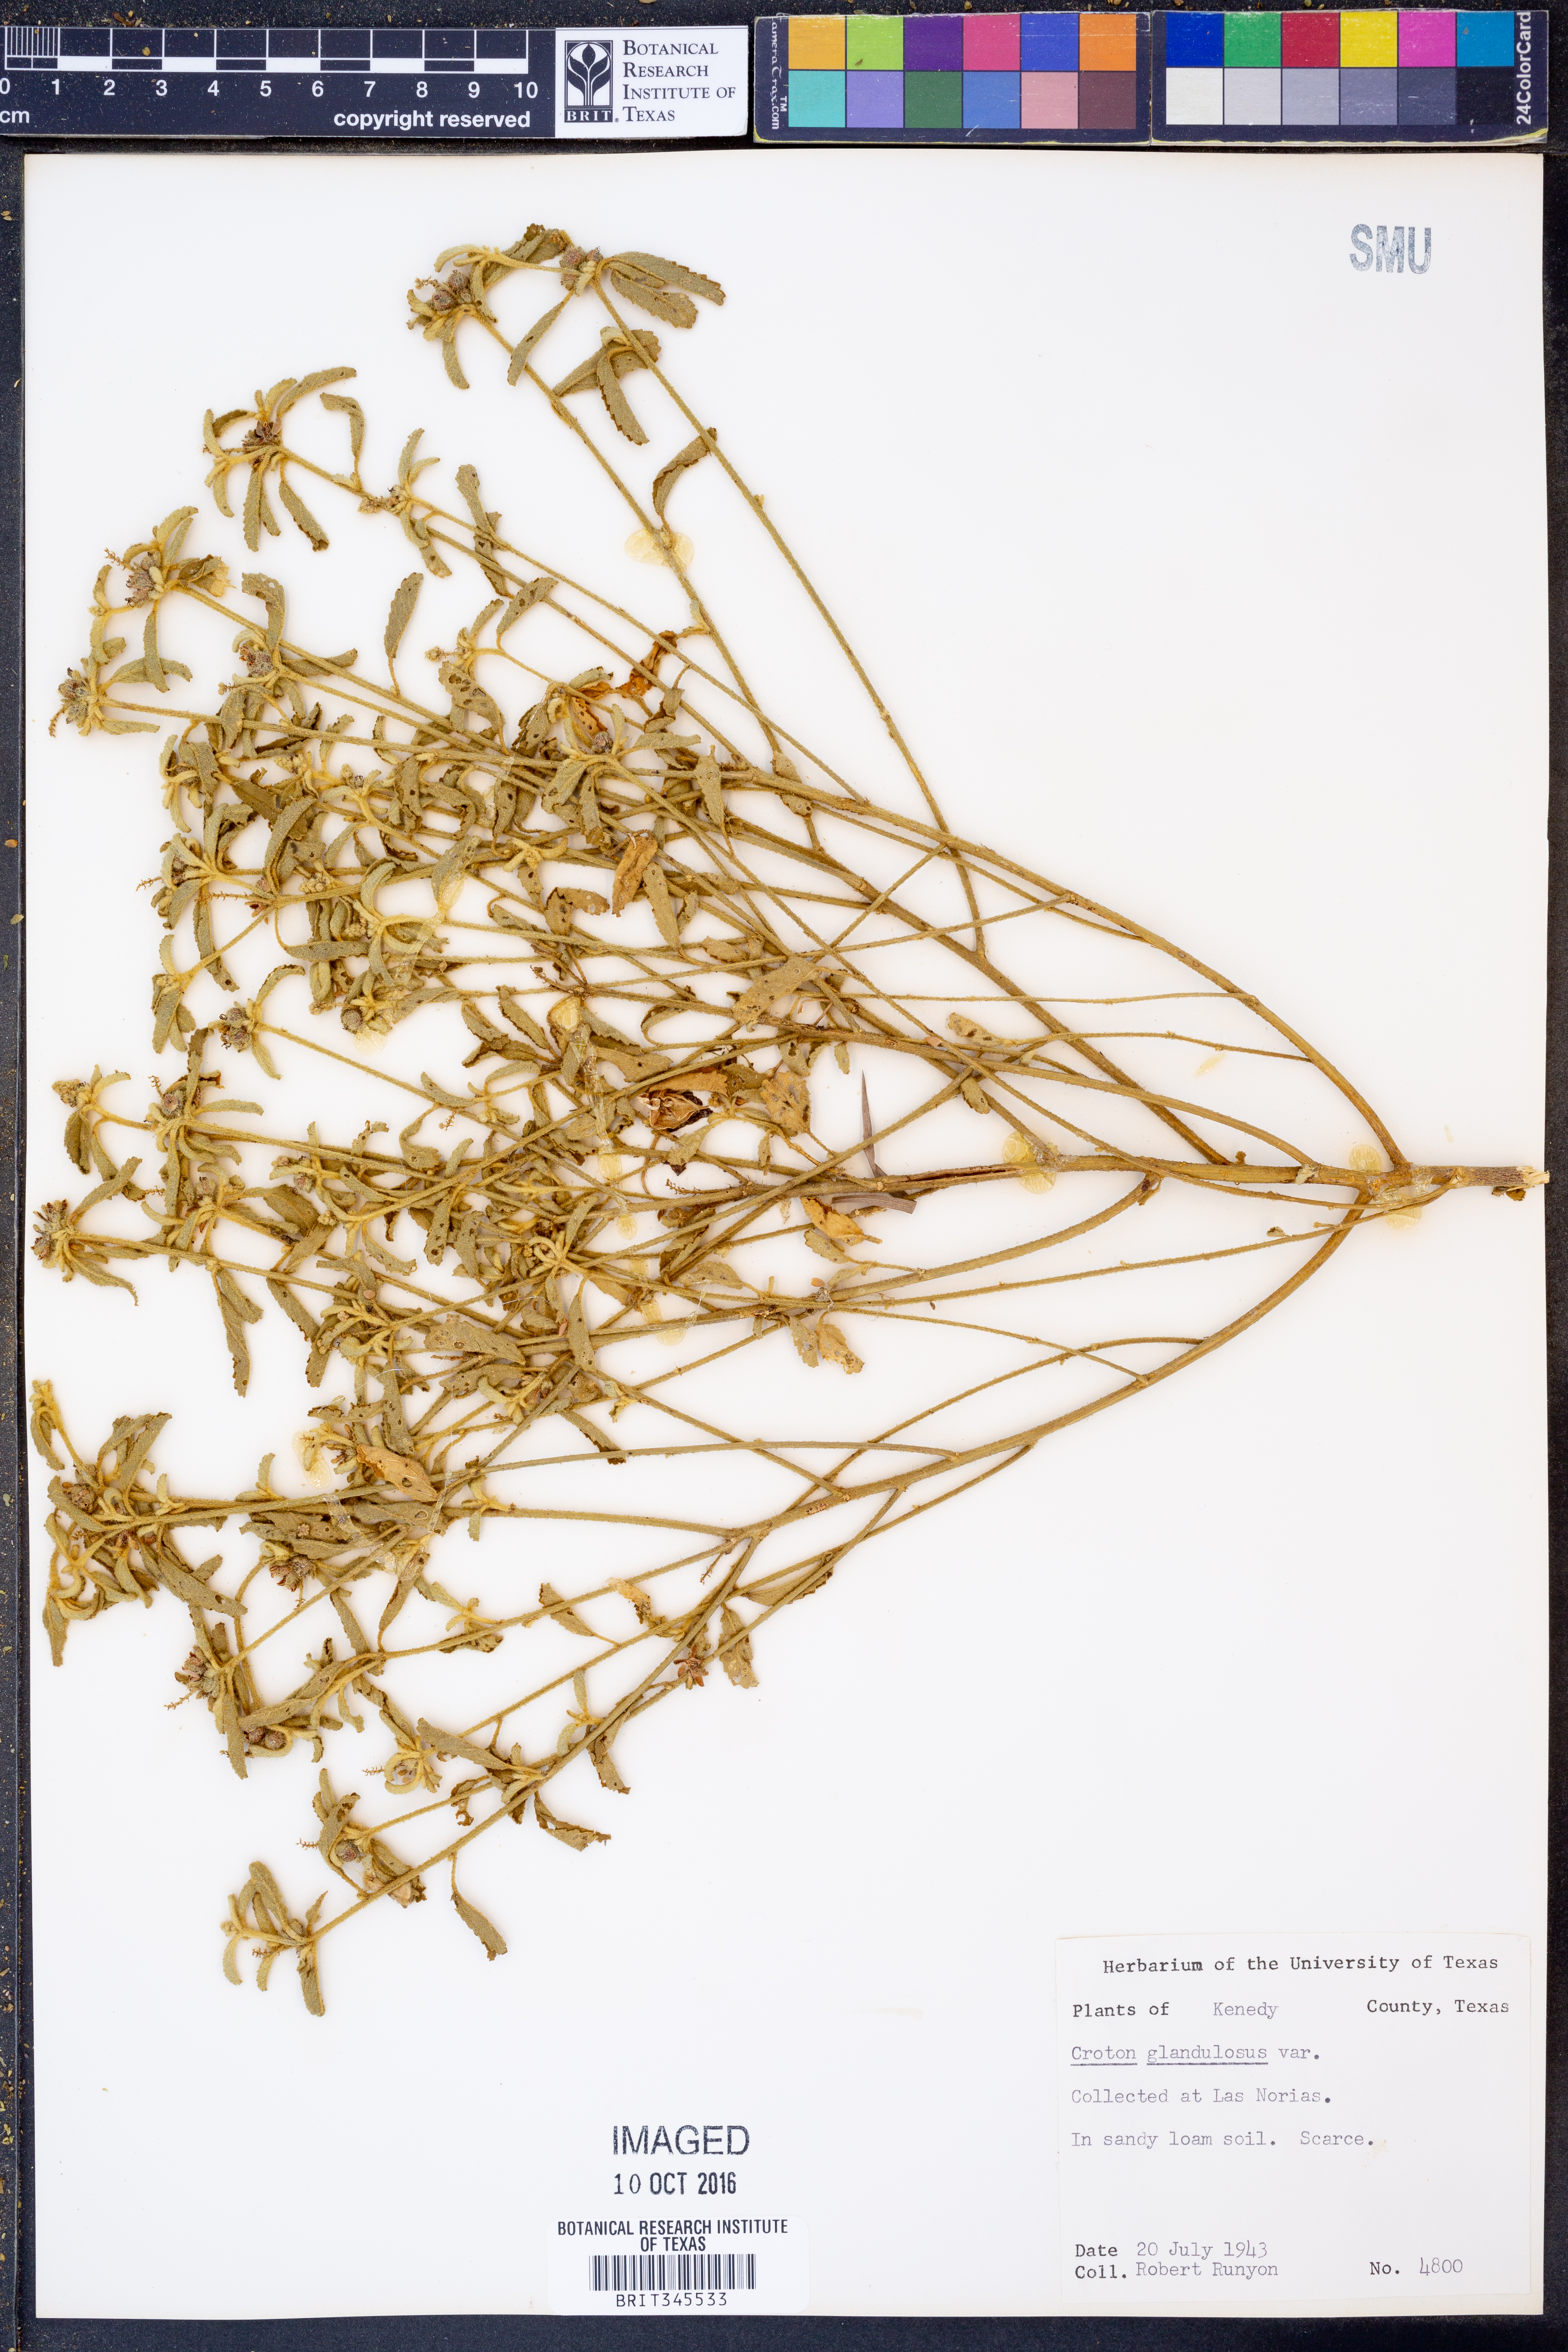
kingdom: Plantae
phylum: Tracheophyta
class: Magnoliopsida
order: Malpighiales
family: Euphorbiaceae
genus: Croton
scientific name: Croton glandulosus
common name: Tropic croton
